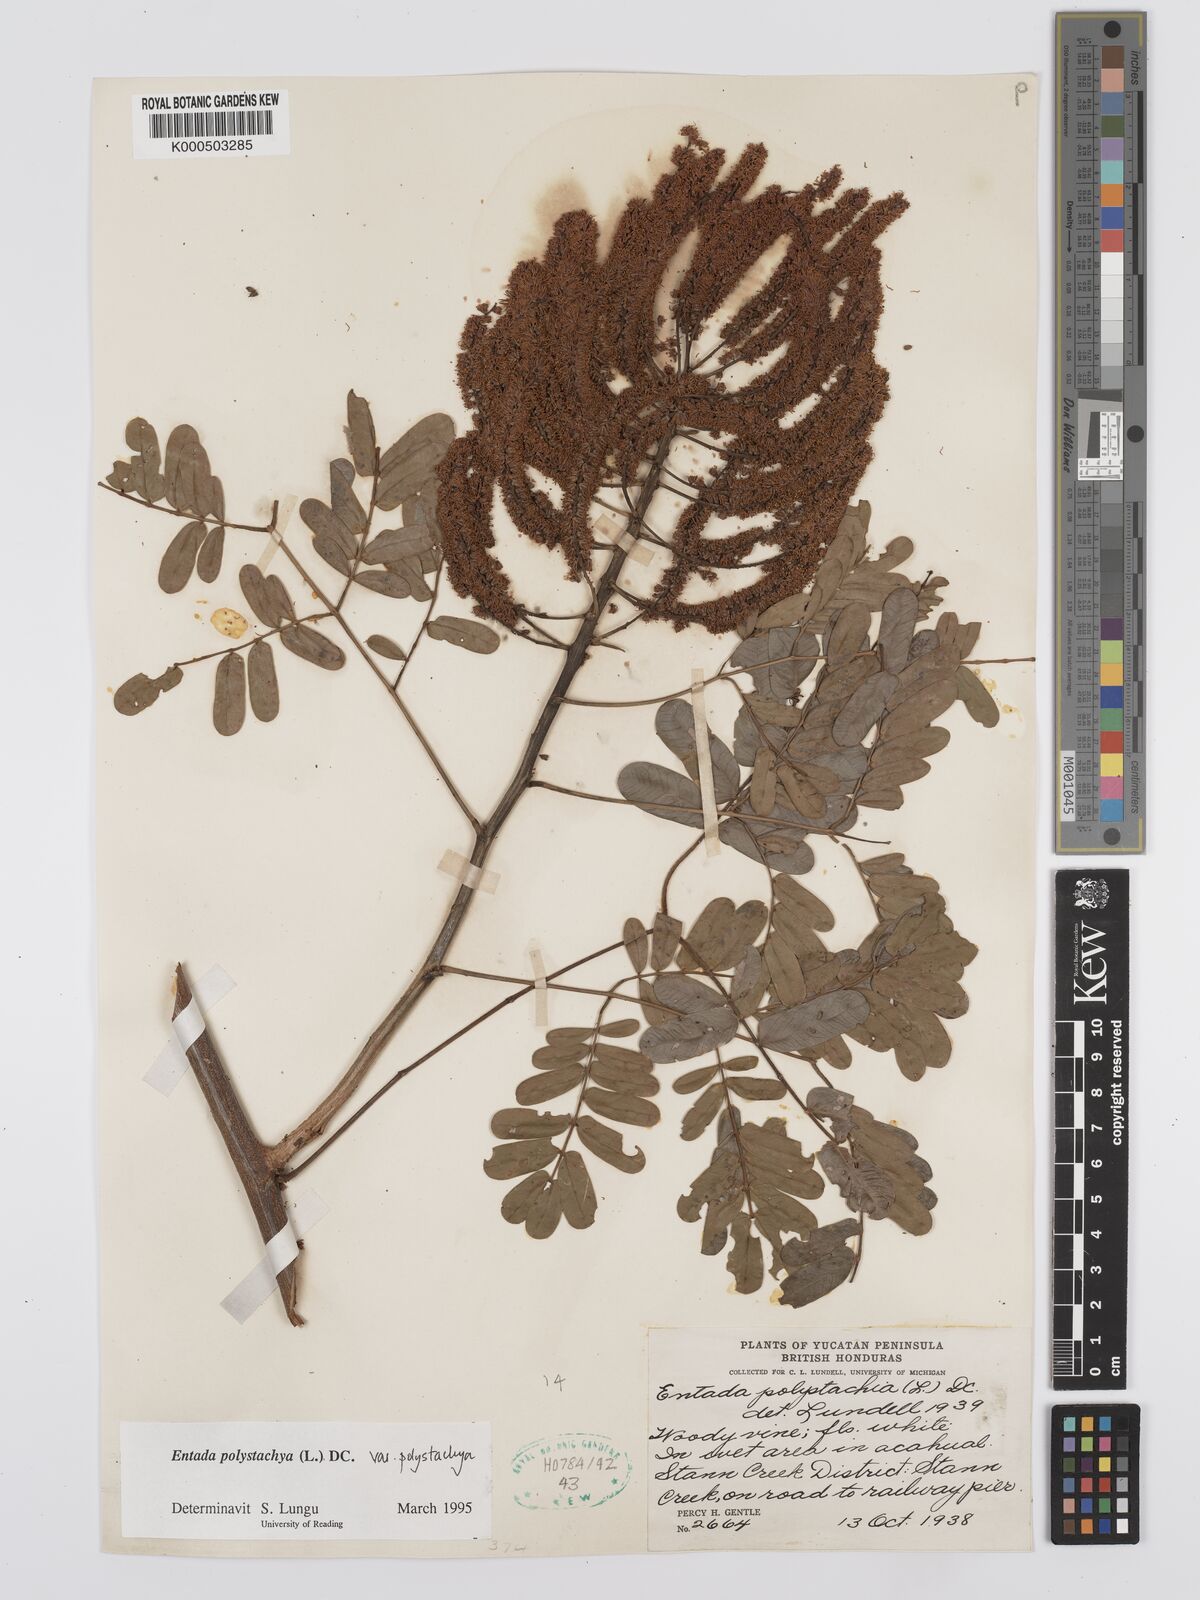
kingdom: Plantae
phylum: Tracheophyta
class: Magnoliopsida
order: Fabales
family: Fabaceae
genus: Entada
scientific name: Entada polystachya
